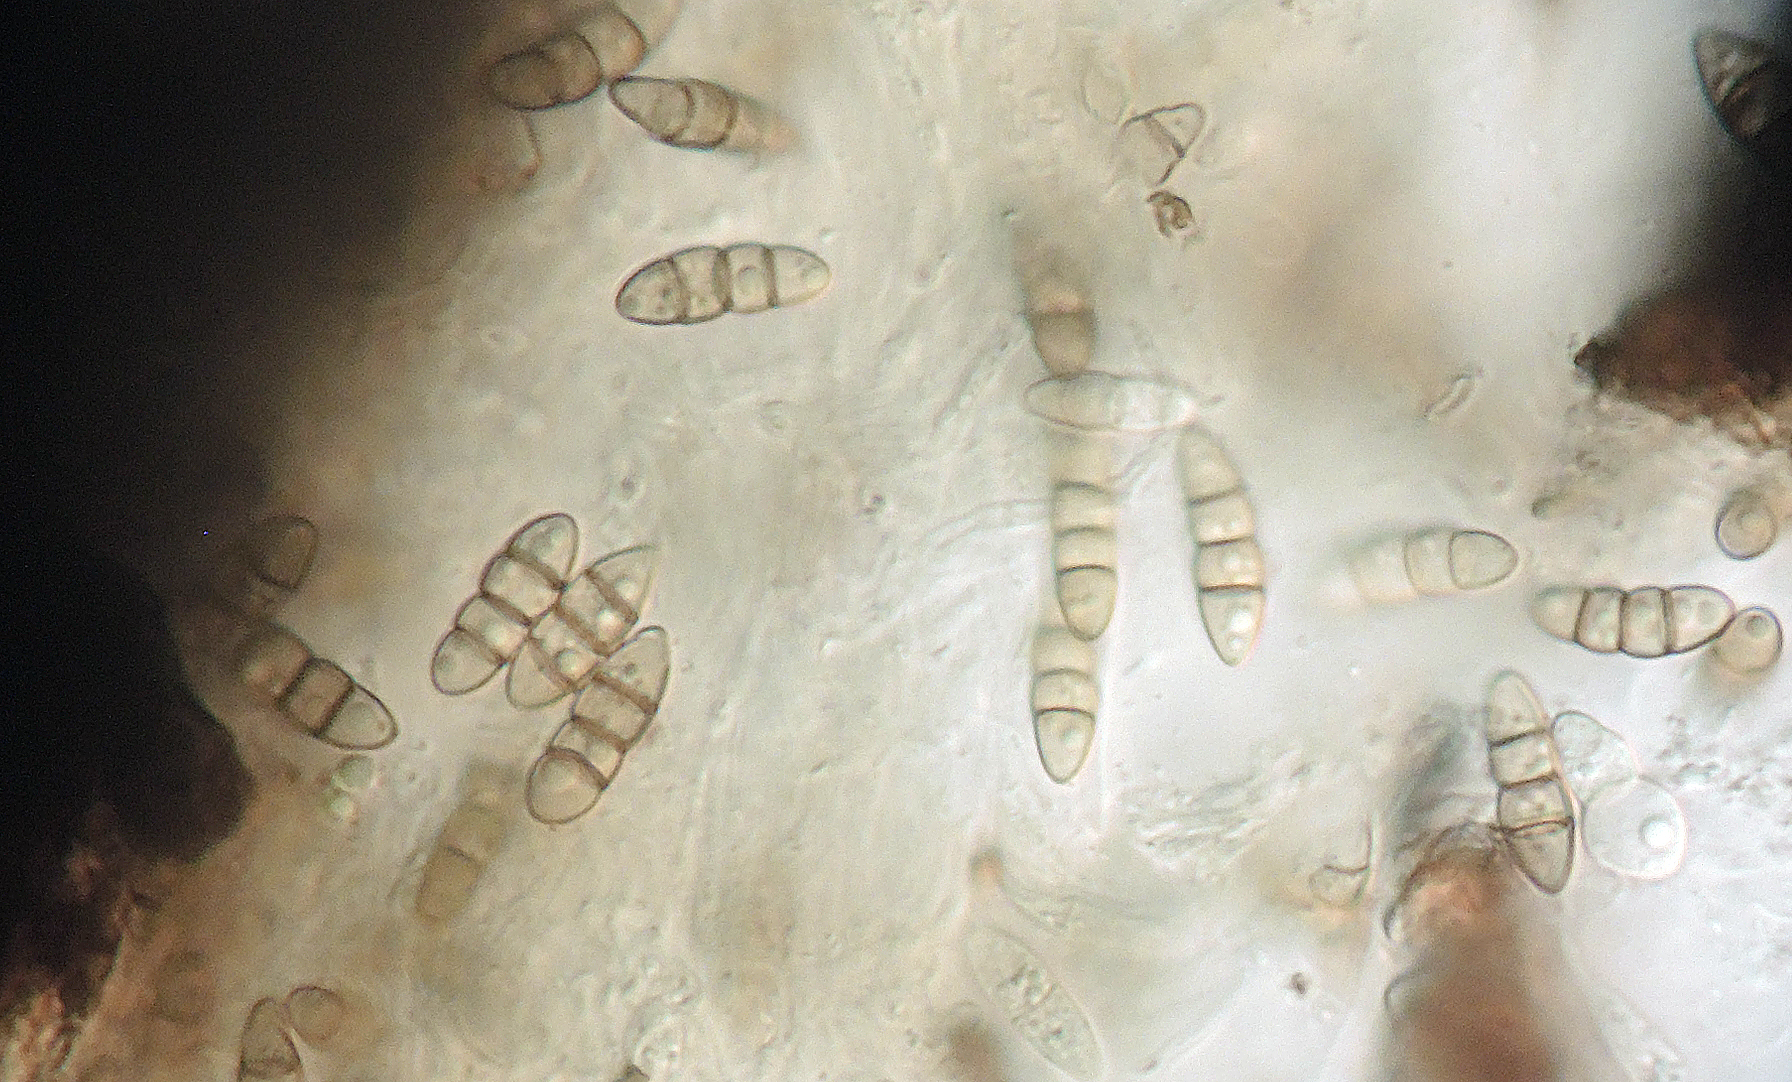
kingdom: Fungi
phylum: Ascomycota
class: Dothideomycetes
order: Pleosporales
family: Melanommataceae
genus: Melanomma
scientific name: Melanomma pulvis-pyrius
